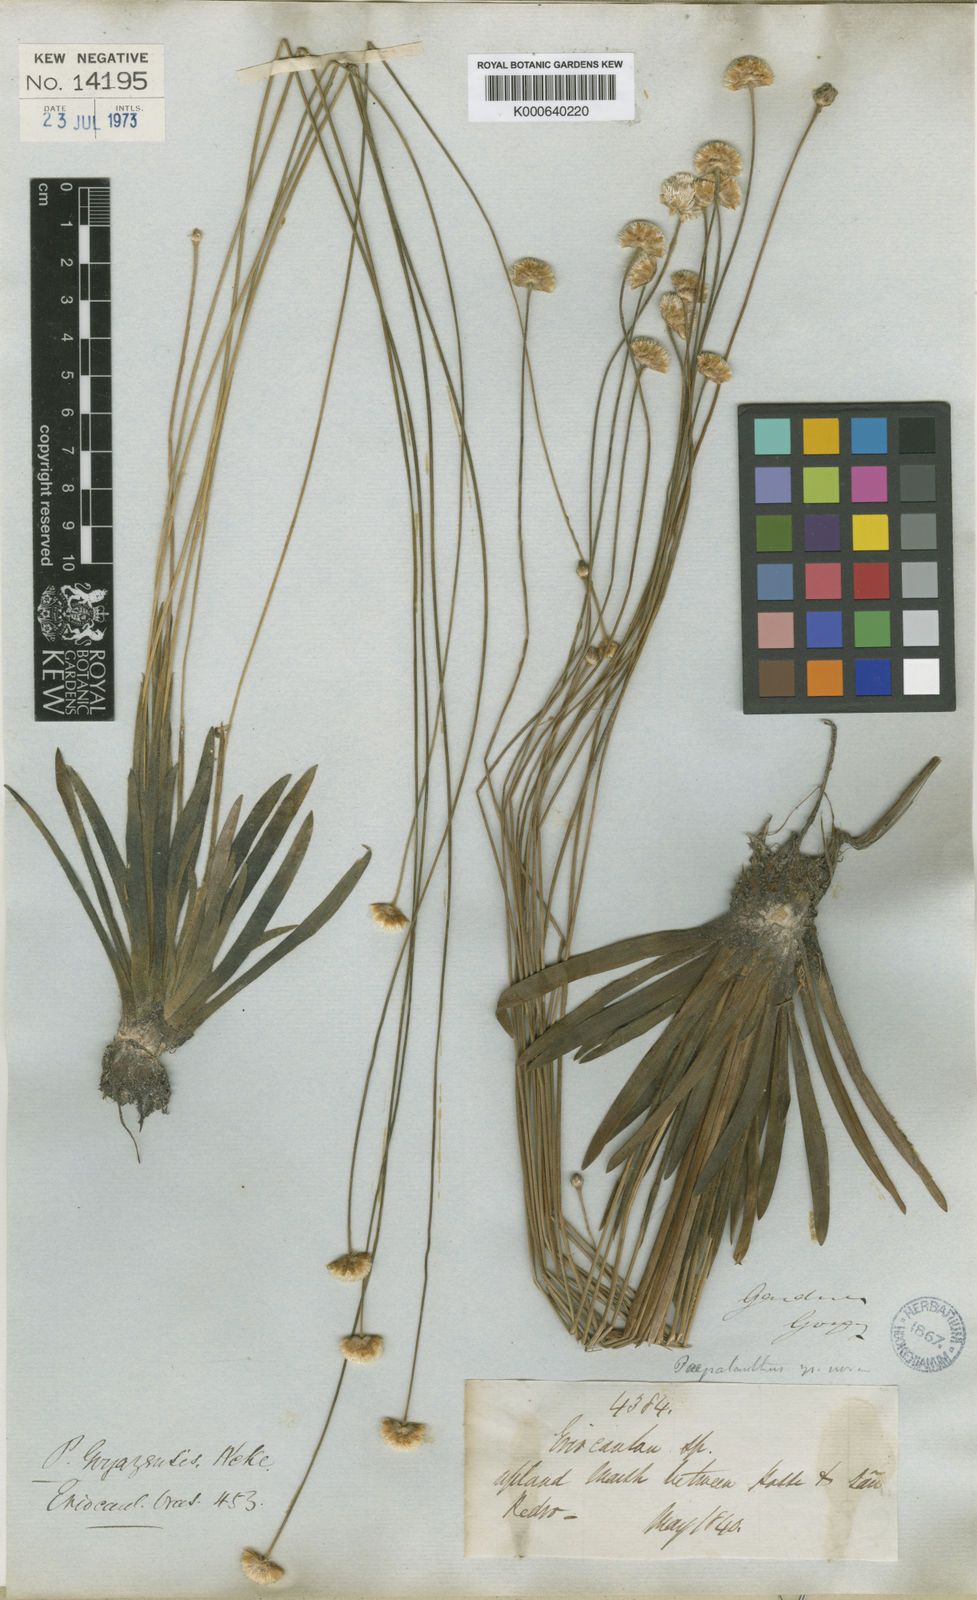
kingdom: Plantae
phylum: Tracheophyta
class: Liliopsida
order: Poales
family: Eriocaulaceae
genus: Syngonanthus
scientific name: Syngonanthus
